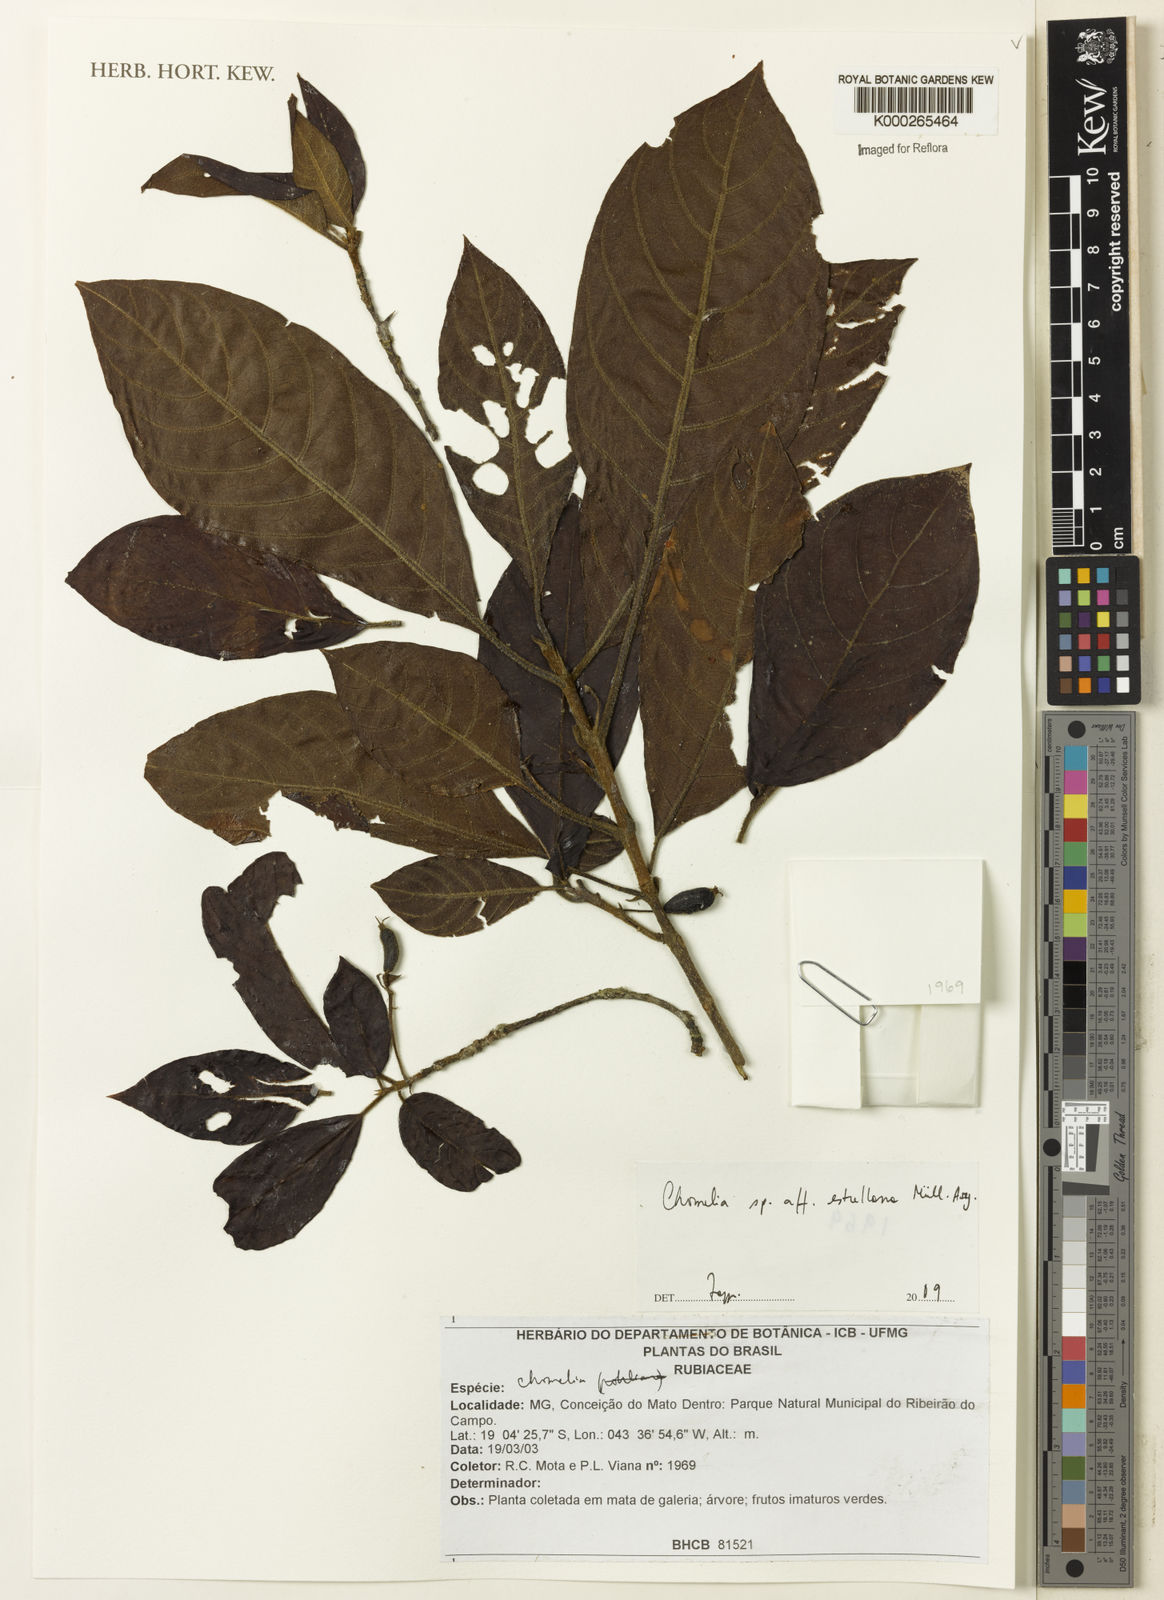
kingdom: Plantae
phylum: Tracheophyta
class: Magnoliopsida
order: Gentianales
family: Rubiaceae
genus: Chomelia
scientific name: Chomelia
